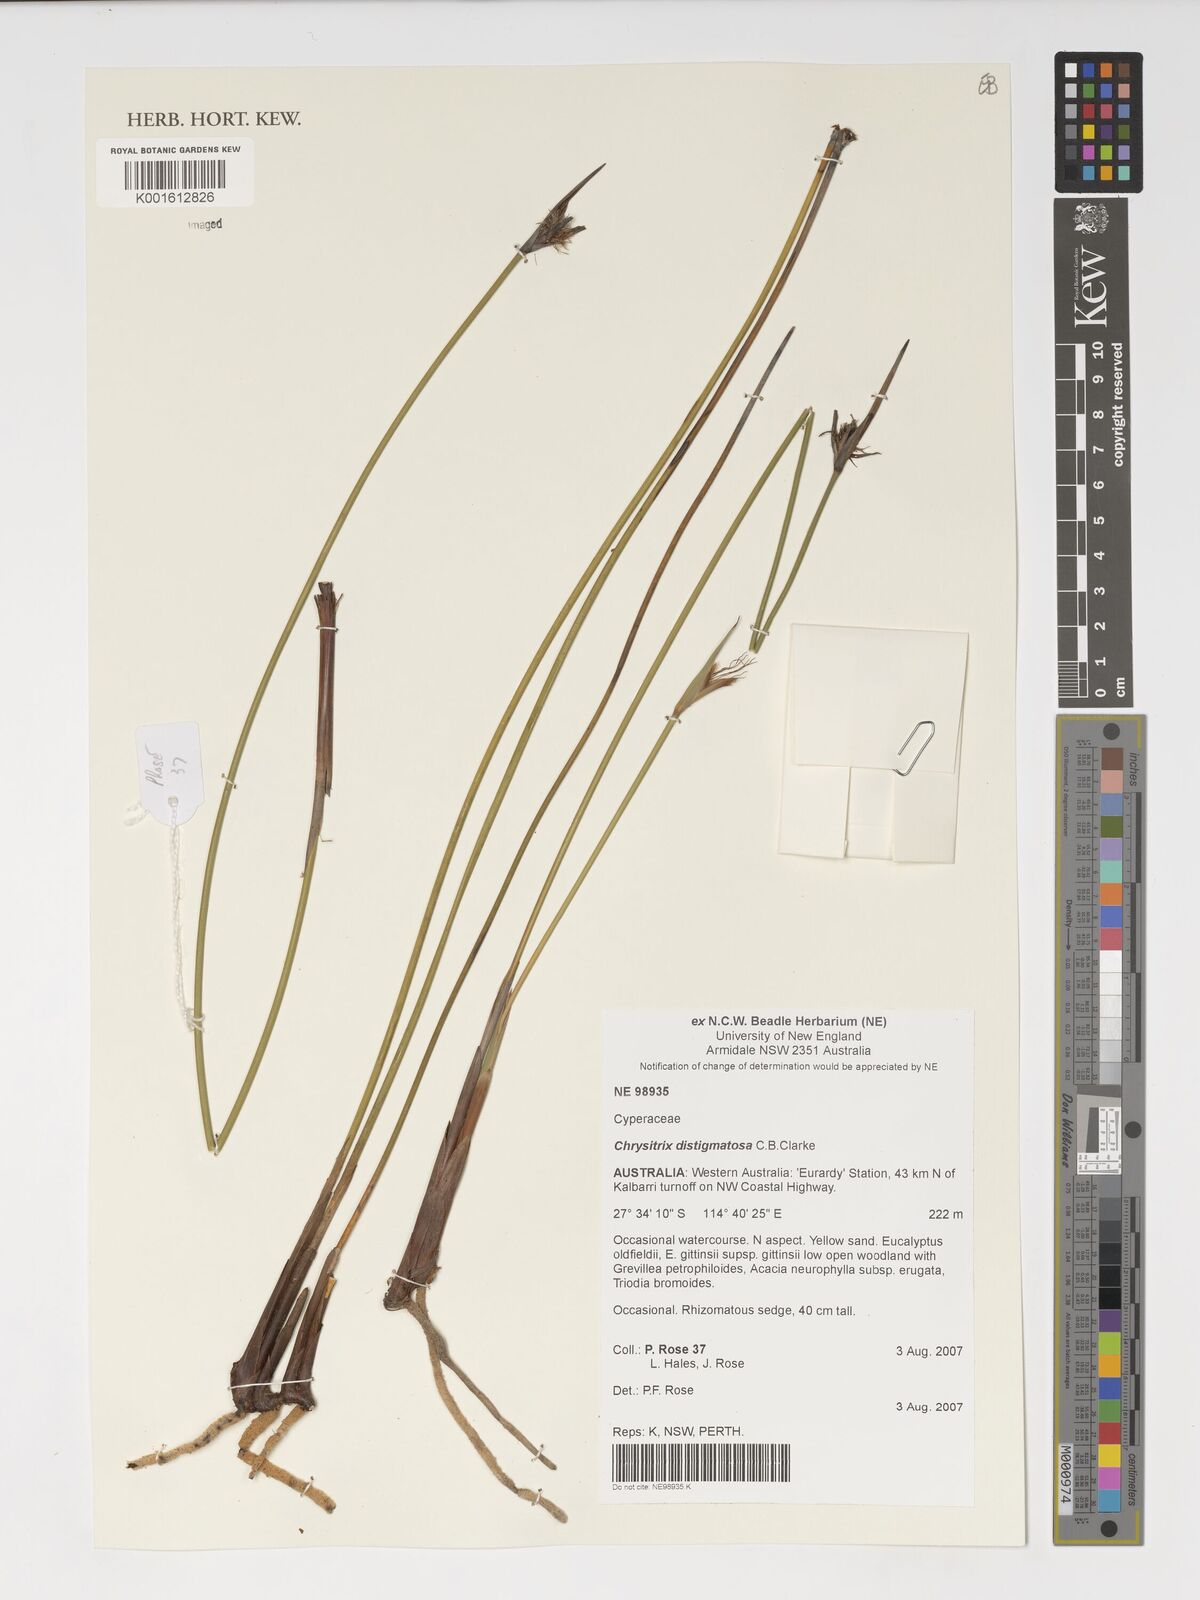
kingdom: Plantae
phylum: Tracheophyta
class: Liliopsida
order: Poales
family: Cyperaceae
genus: Chrysitrix
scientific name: Chrysitrix distigmatosa
